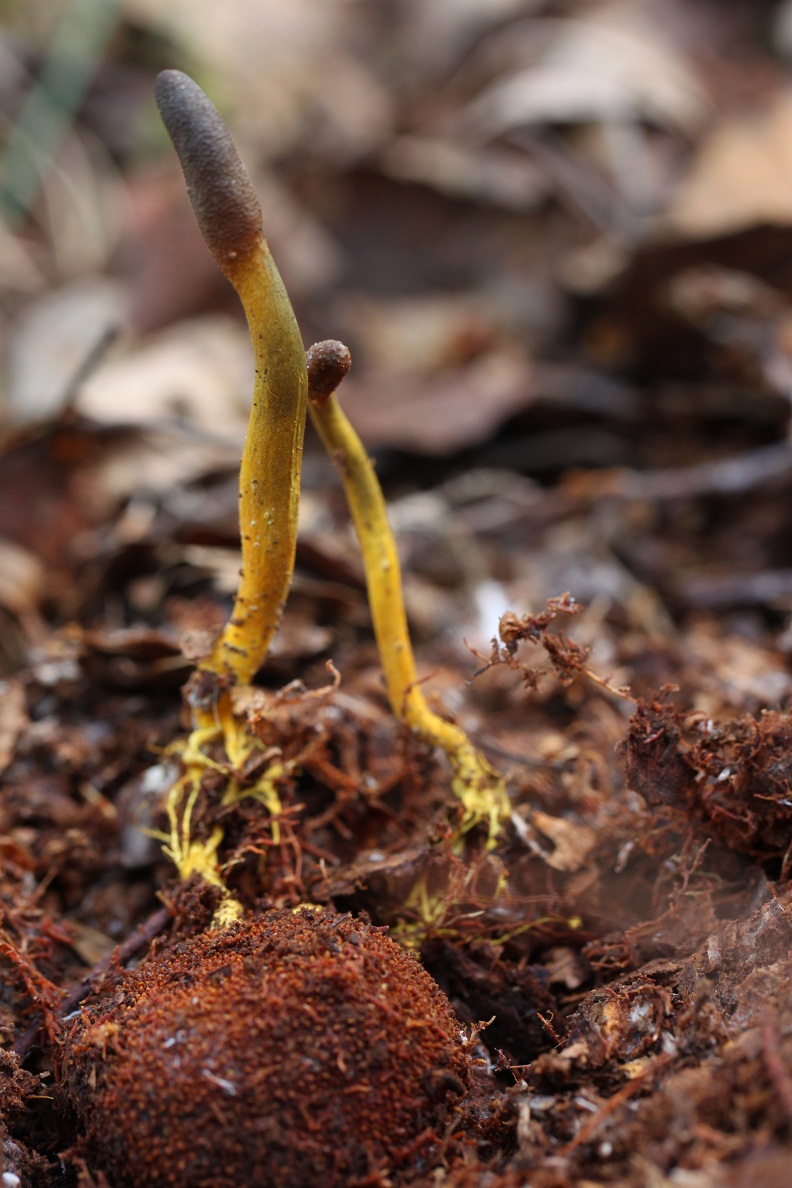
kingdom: Fungi
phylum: Ascomycota
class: Sordariomycetes
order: Hypocreales
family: Ophiocordycipitaceae
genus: Tolypocladium
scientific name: Tolypocladium ophioglossoides
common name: slank snyltekølle
